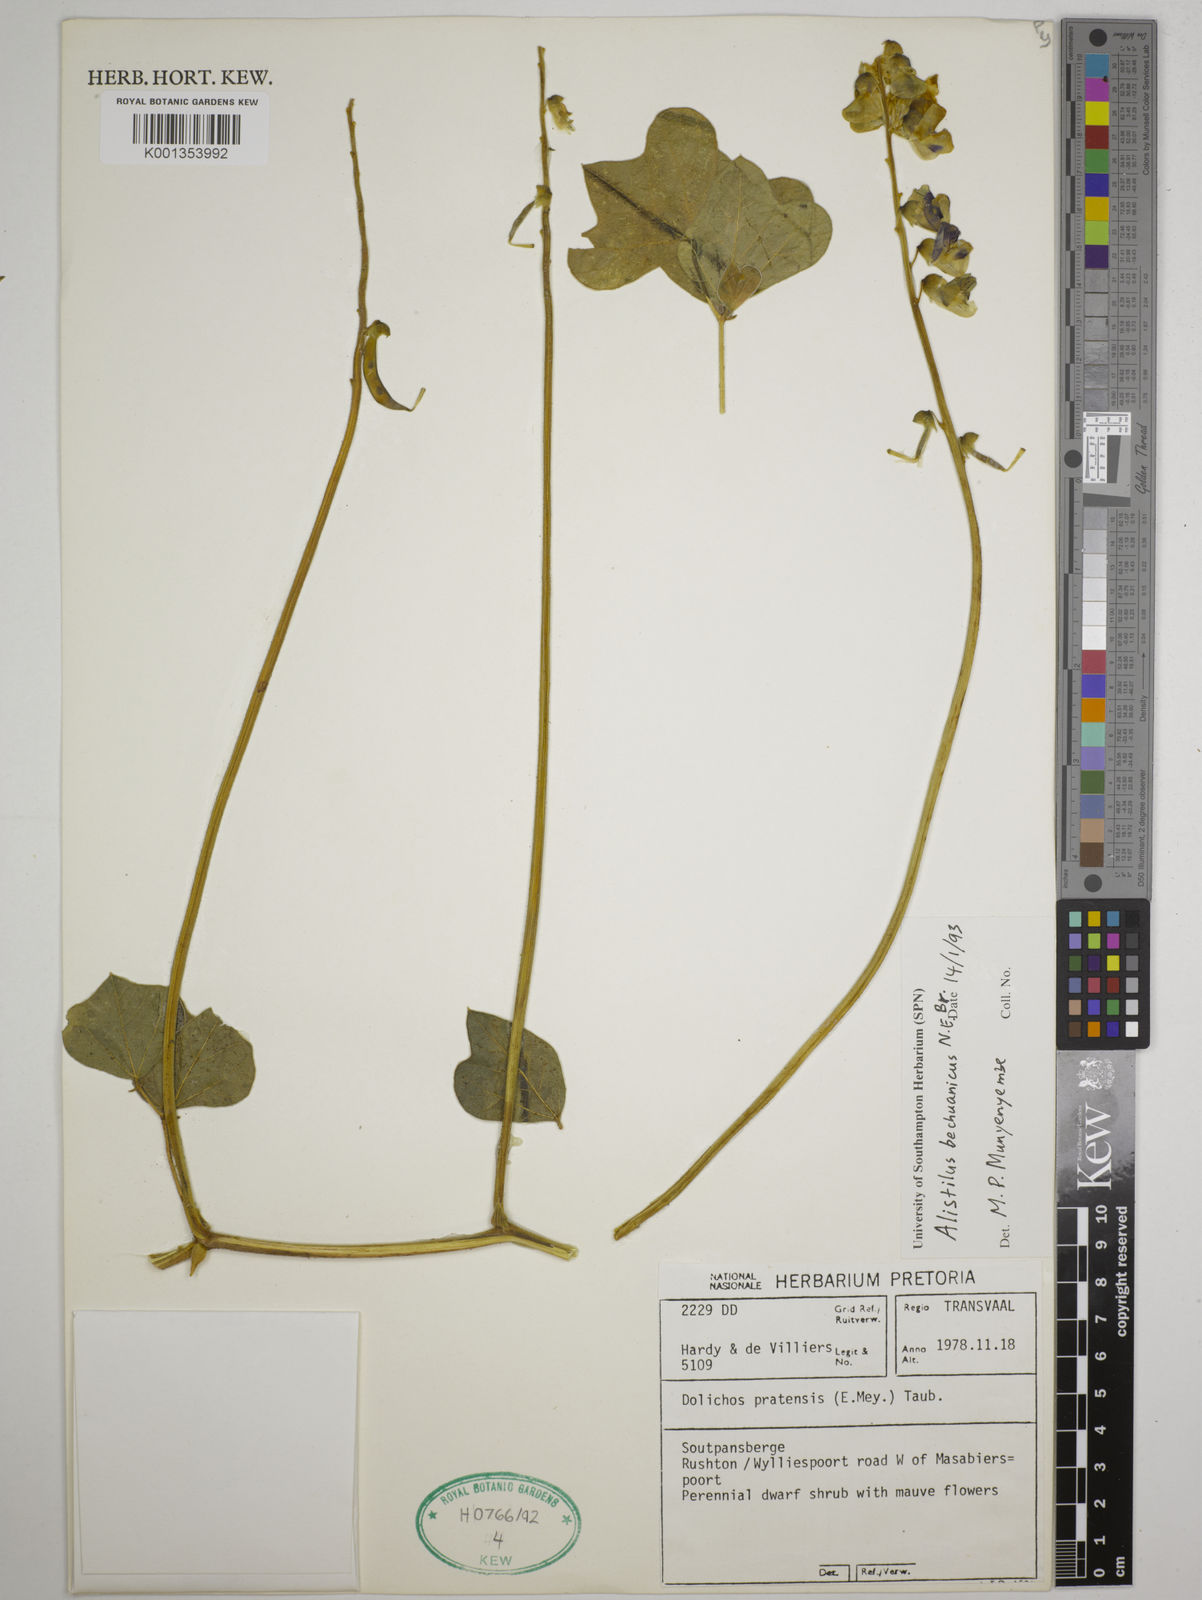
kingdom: Plantae
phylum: Tracheophyta
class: Magnoliopsida
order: Fabales
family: Fabaceae
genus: Alistilus
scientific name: Alistilus bechuanicus
